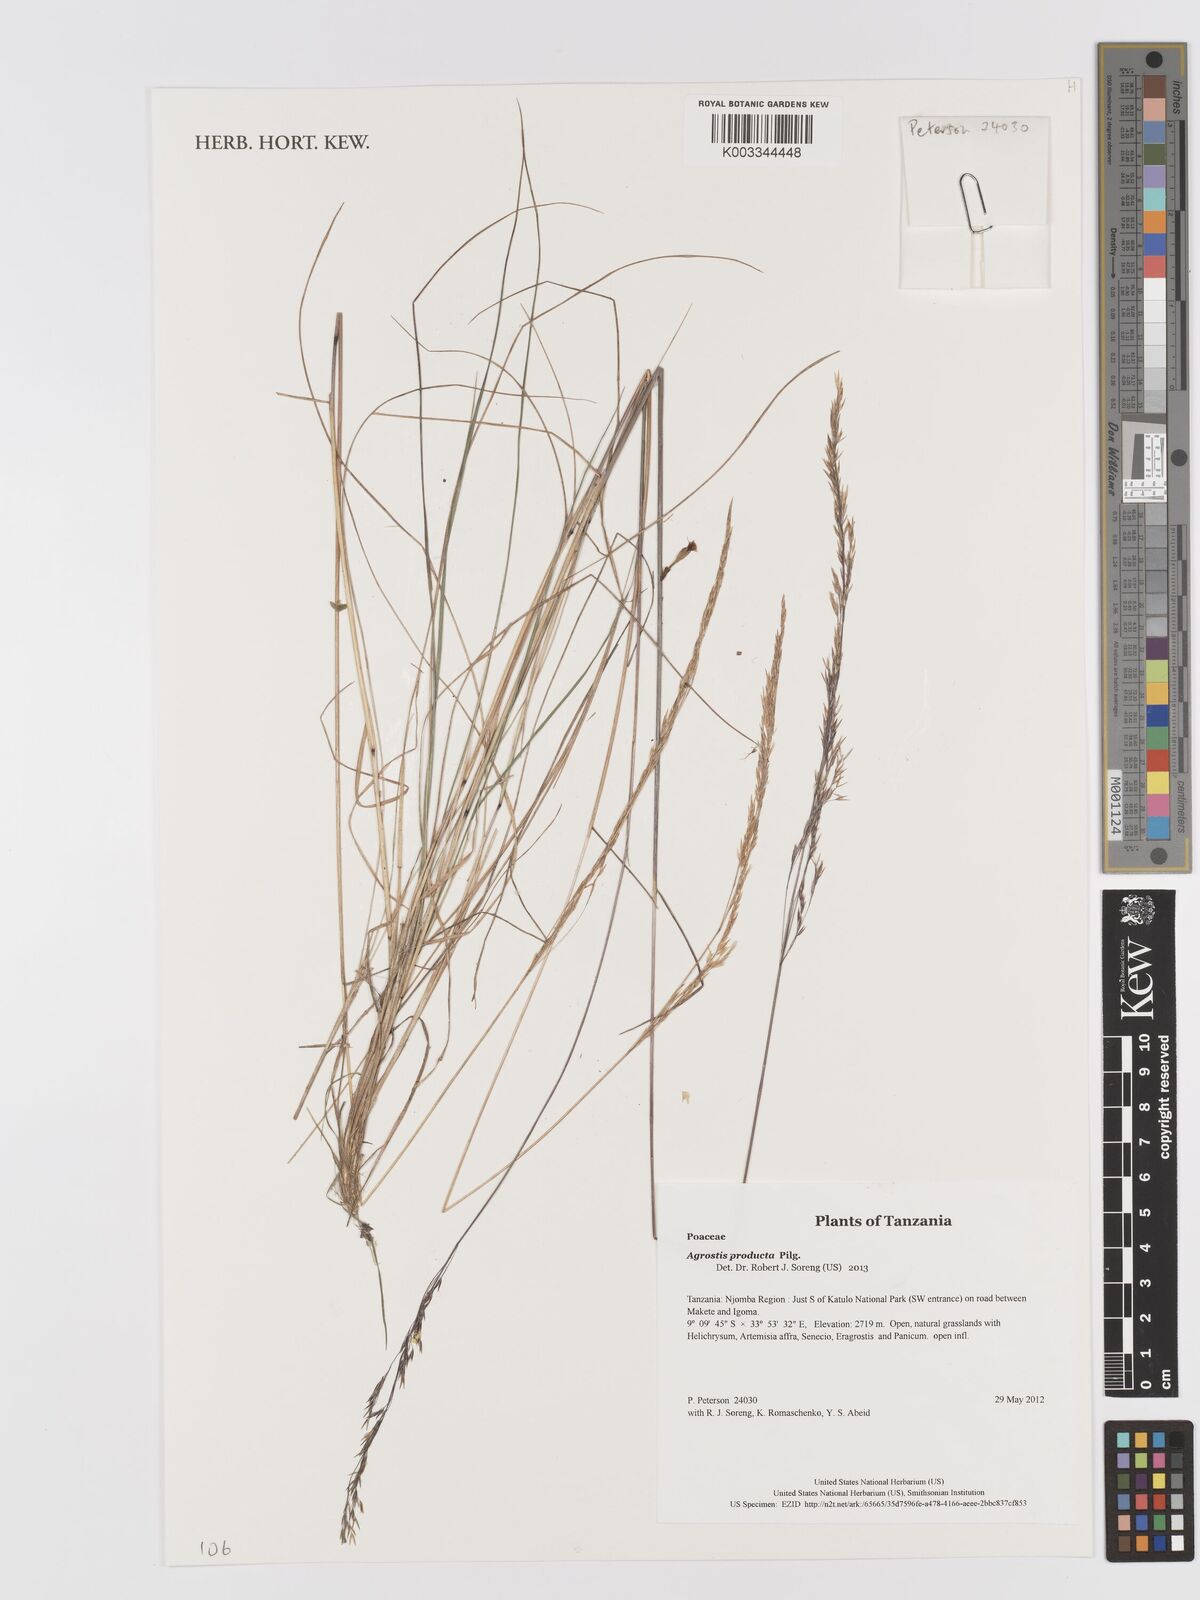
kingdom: Plantae
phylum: Tracheophyta
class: Liliopsida
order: Poales
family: Poaceae
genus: Agrostis
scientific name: Agrostis producta
